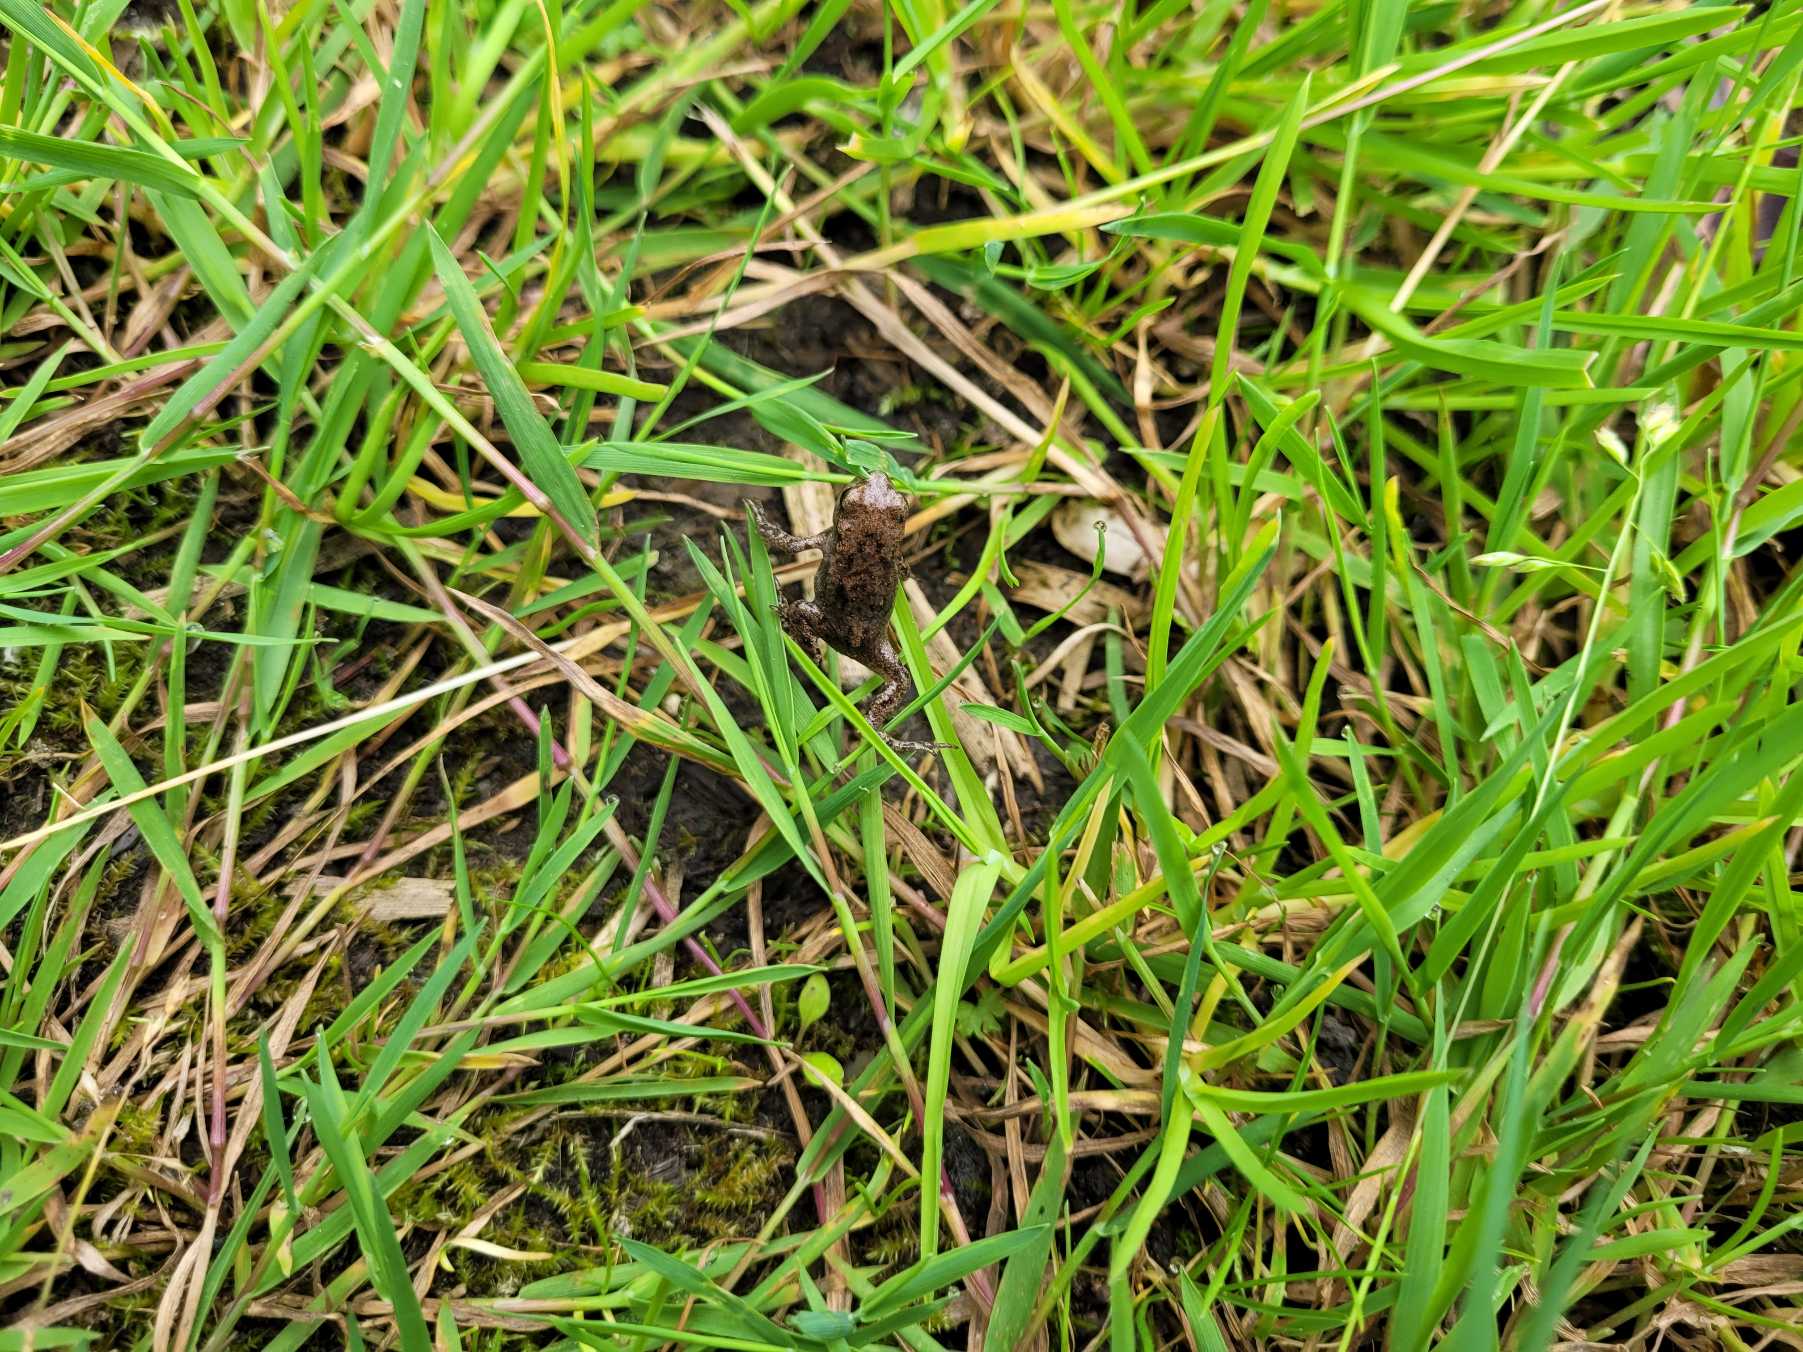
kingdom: Animalia
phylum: Chordata
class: Amphibia
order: Anura
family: Bufonidae
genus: Bufo
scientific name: Bufo bufo
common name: Skrubtudse
